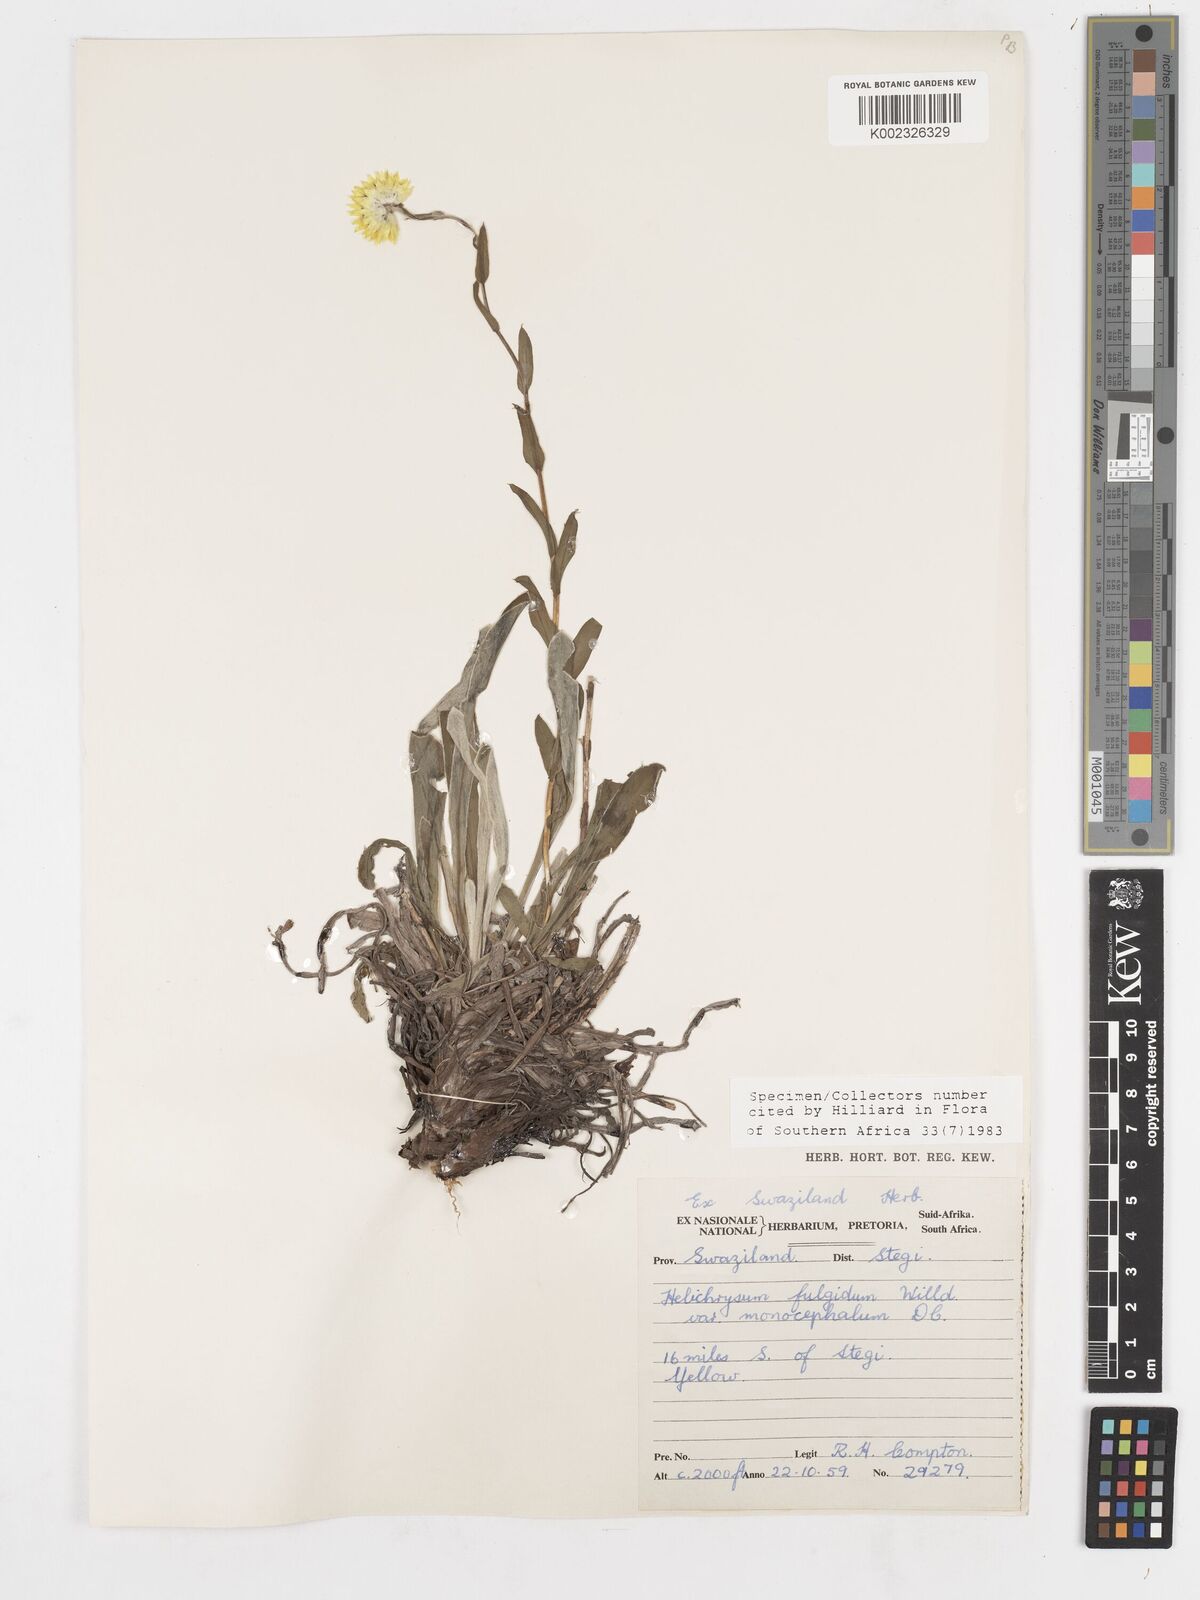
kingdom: Plantae
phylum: Tracheophyta
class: Magnoliopsida
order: Asterales
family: Asteraceae
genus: Helichrysum
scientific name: Helichrysum aureum
